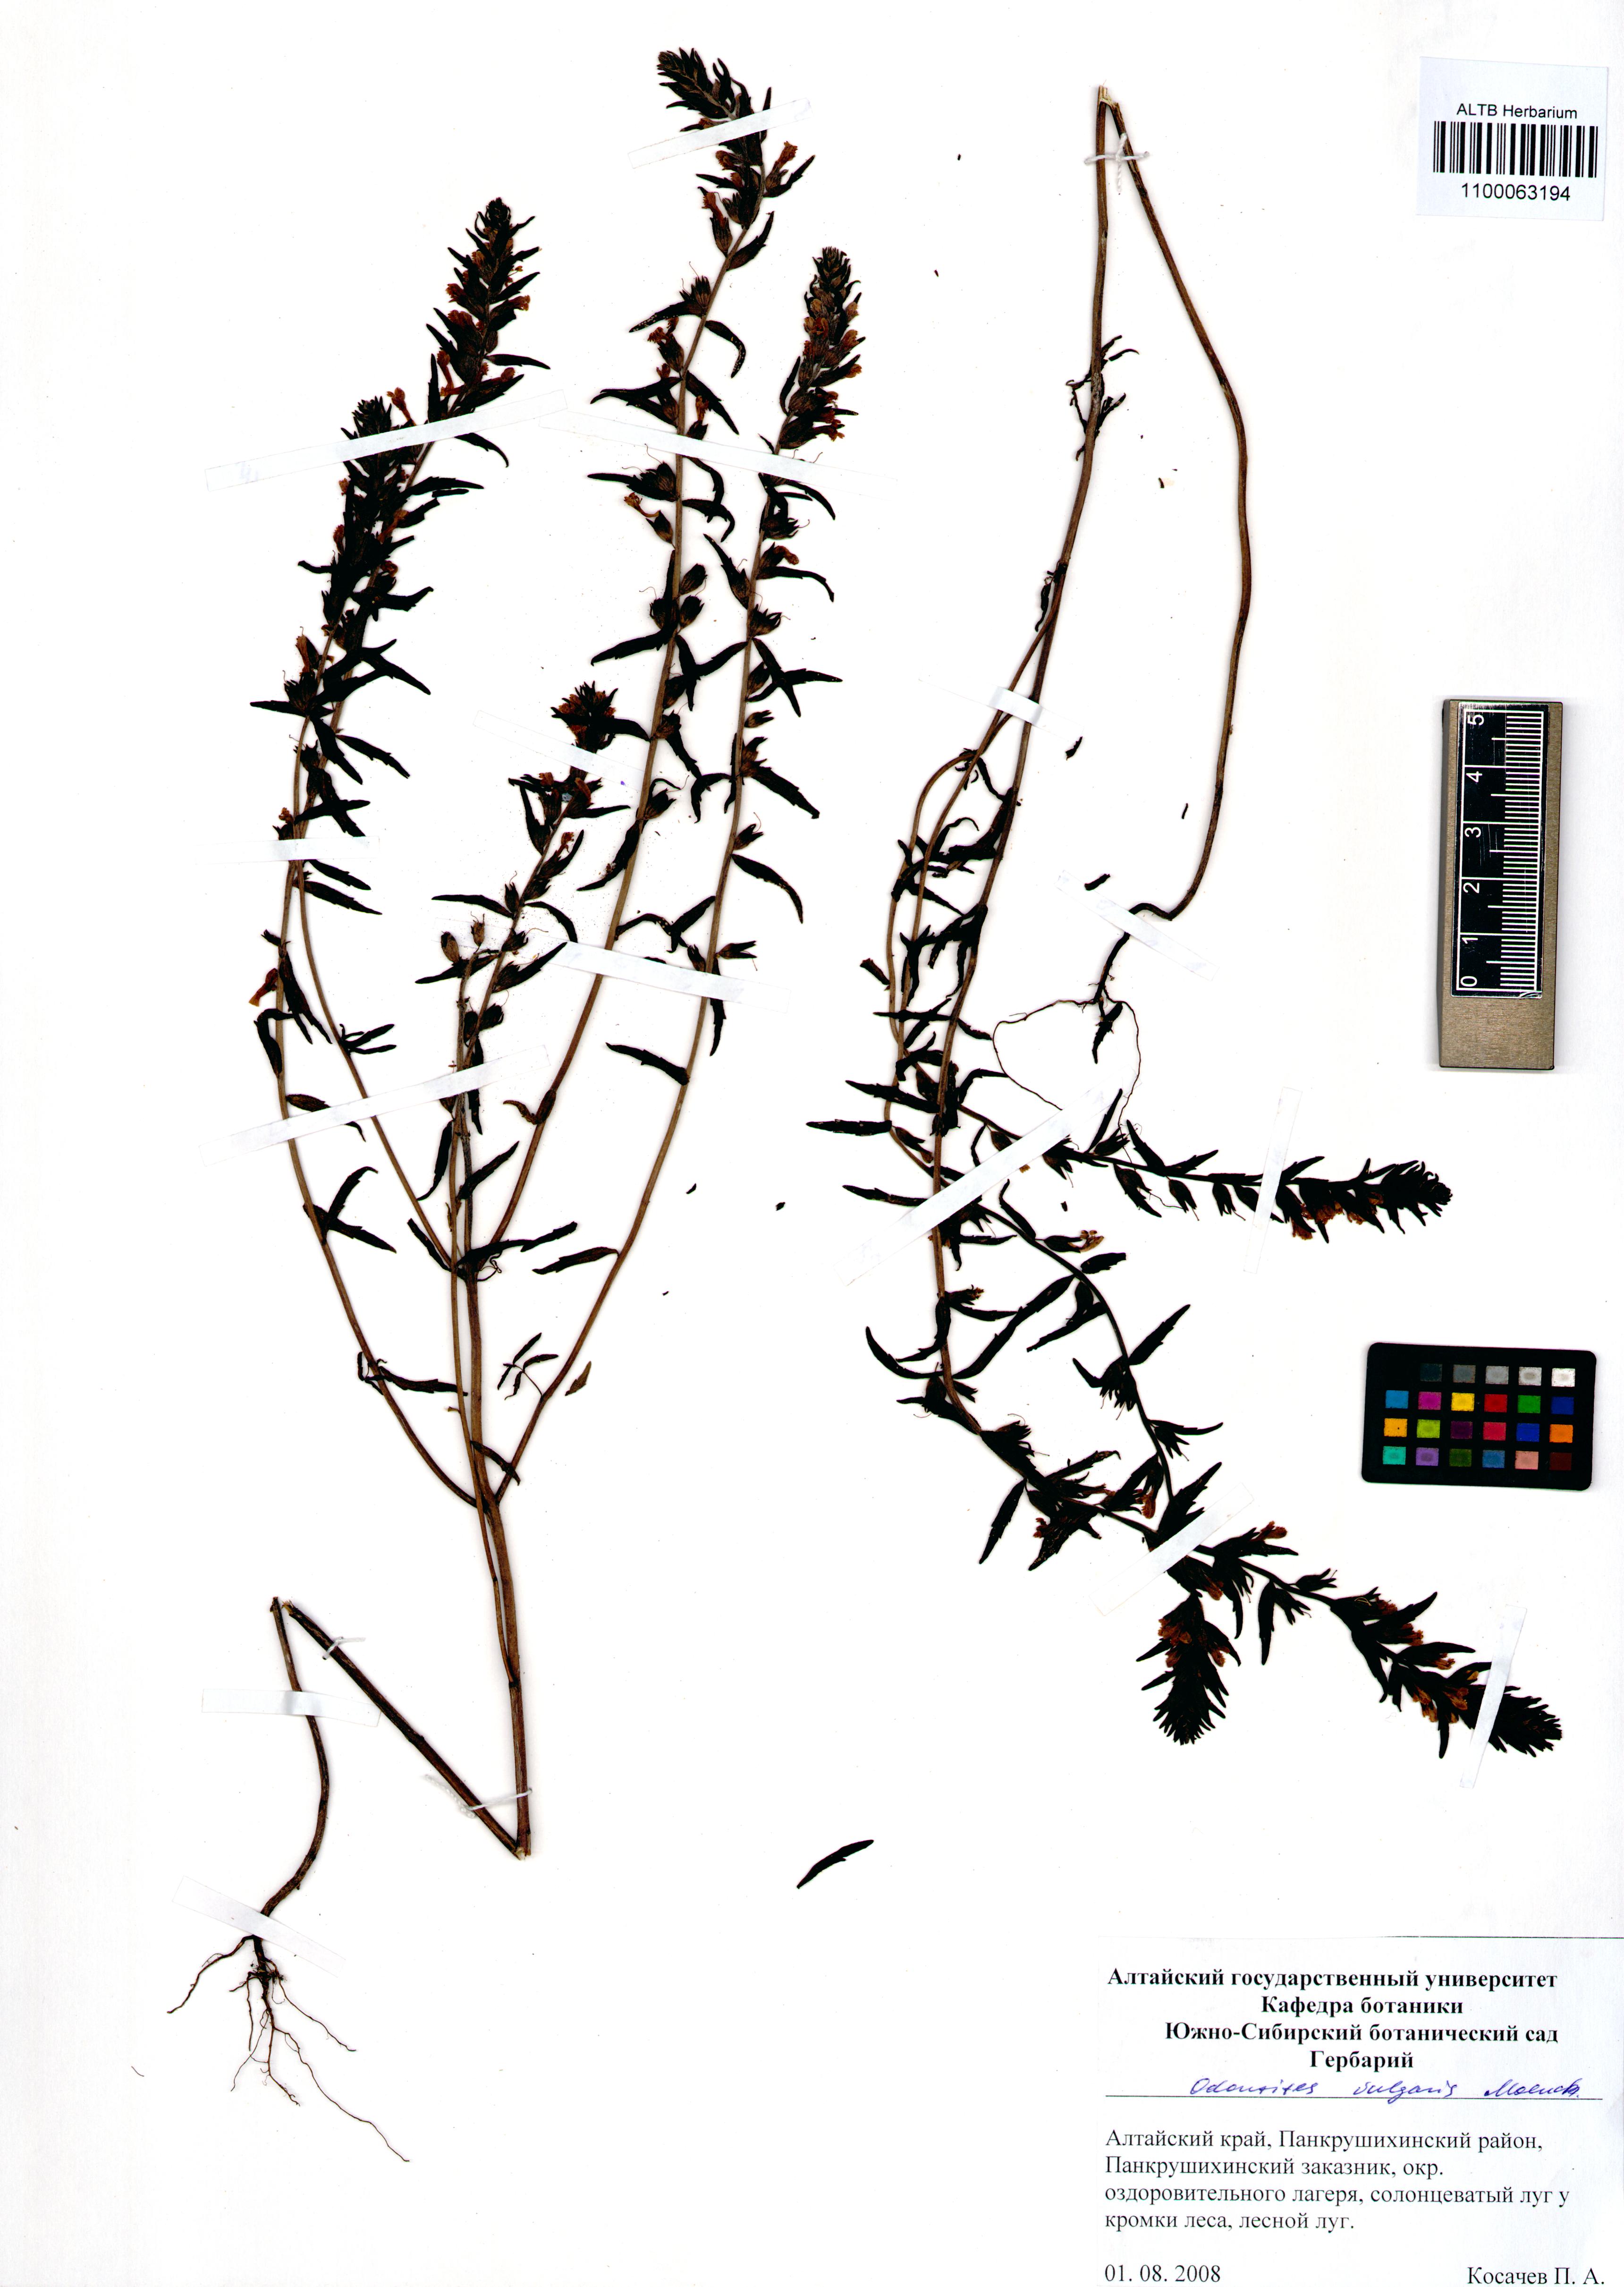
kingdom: Plantae
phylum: Tracheophyta
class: Magnoliopsida
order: Lamiales
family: Orobanchaceae
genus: Odontites
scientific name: Odontites vulgaris
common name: Broomrape
